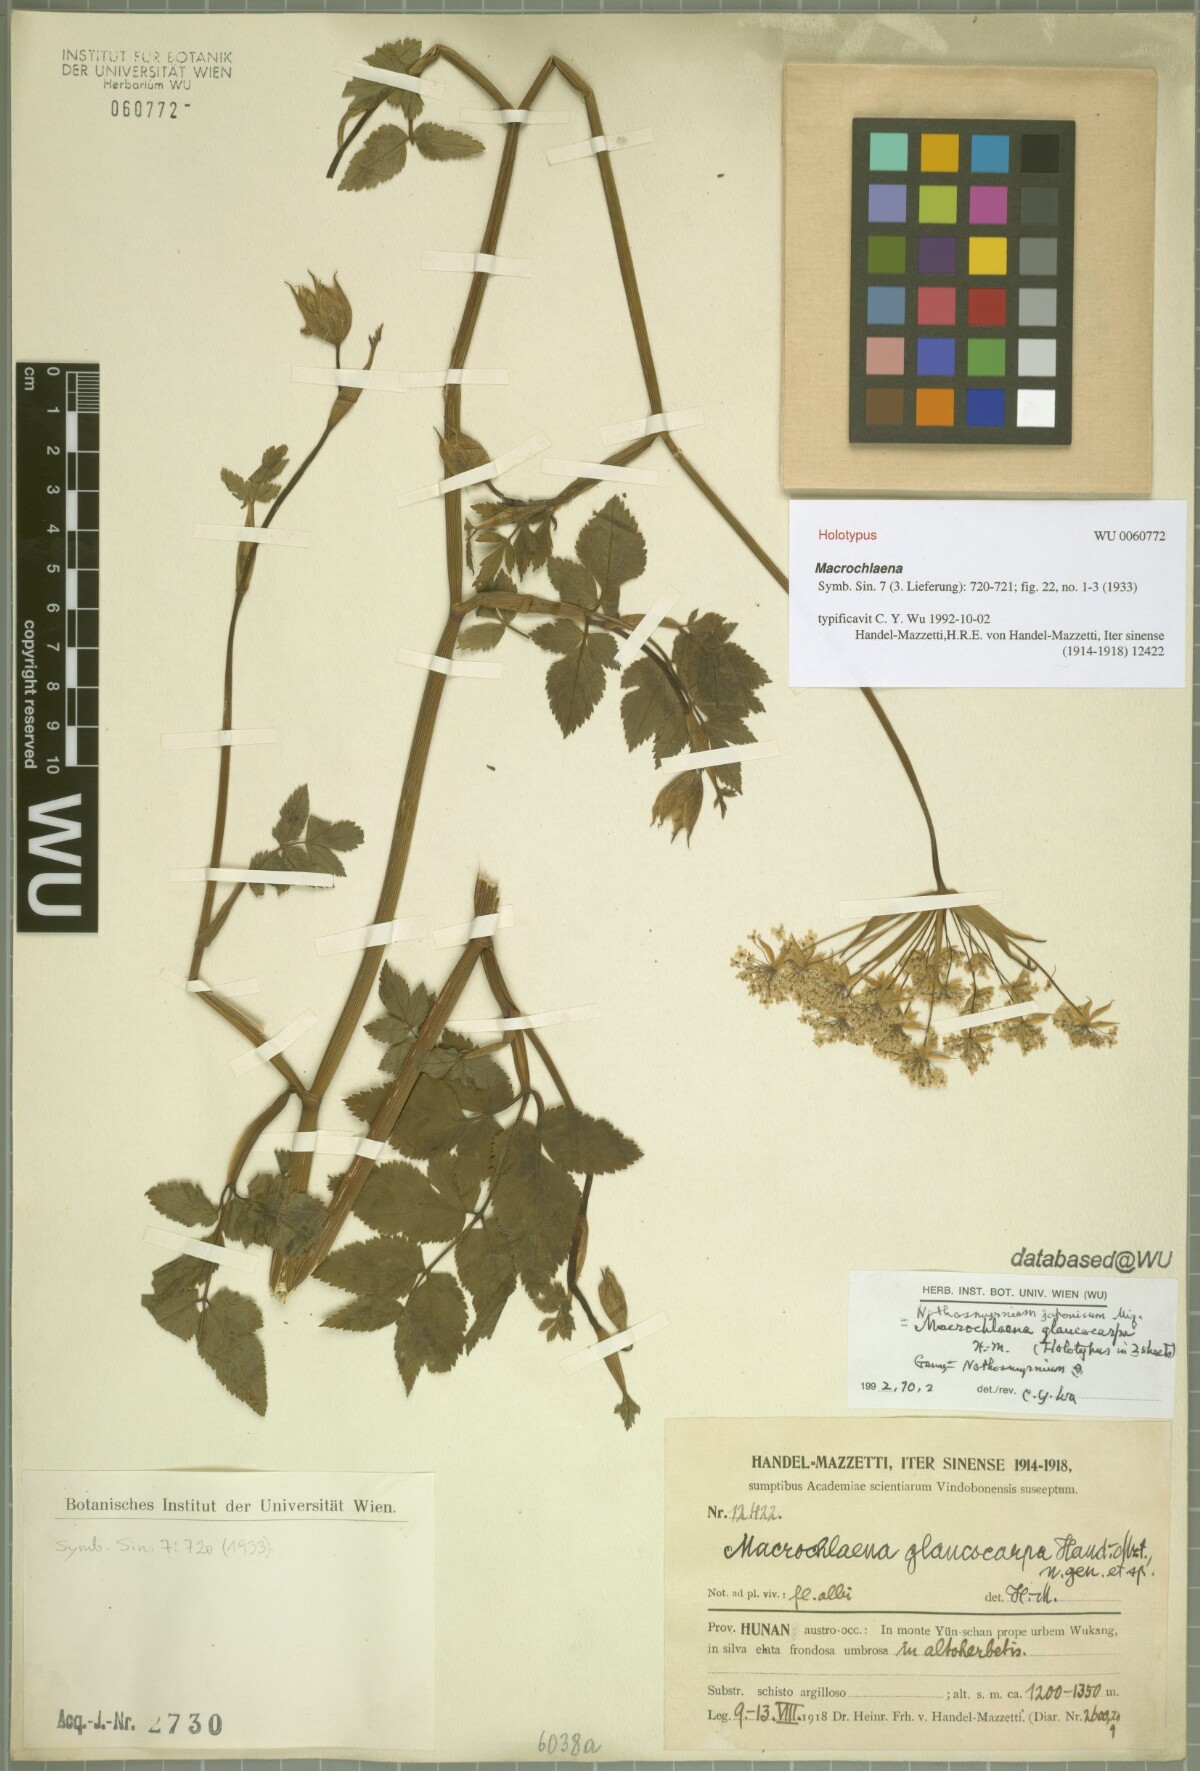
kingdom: Plantae
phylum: Tracheophyta
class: Magnoliopsida
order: Apiales
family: Apiaceae
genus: Nothosmyrnium
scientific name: Nothosmyrnium japonicum
